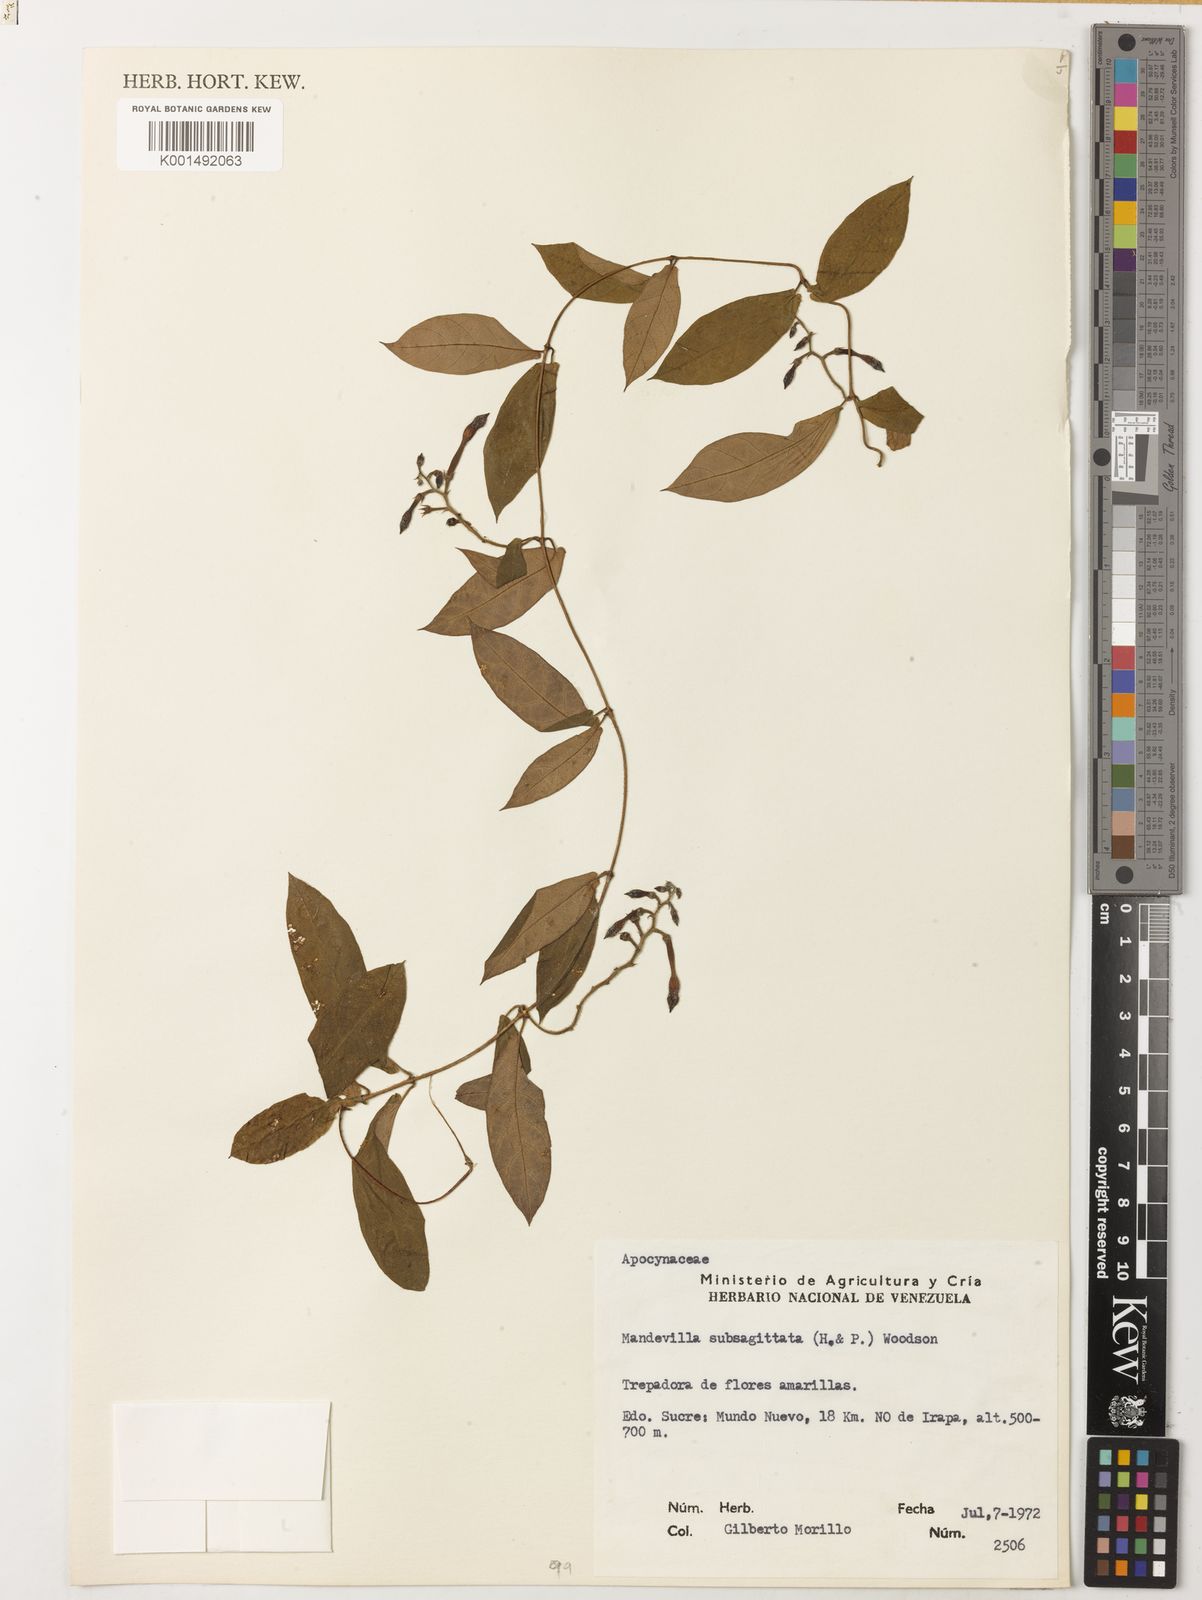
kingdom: Plantae
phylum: Tracheophyta
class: Magnoliopsida
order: Gentianales
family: Apocynaceae
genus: Mandevilla
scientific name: Mandevilla subsagittata
